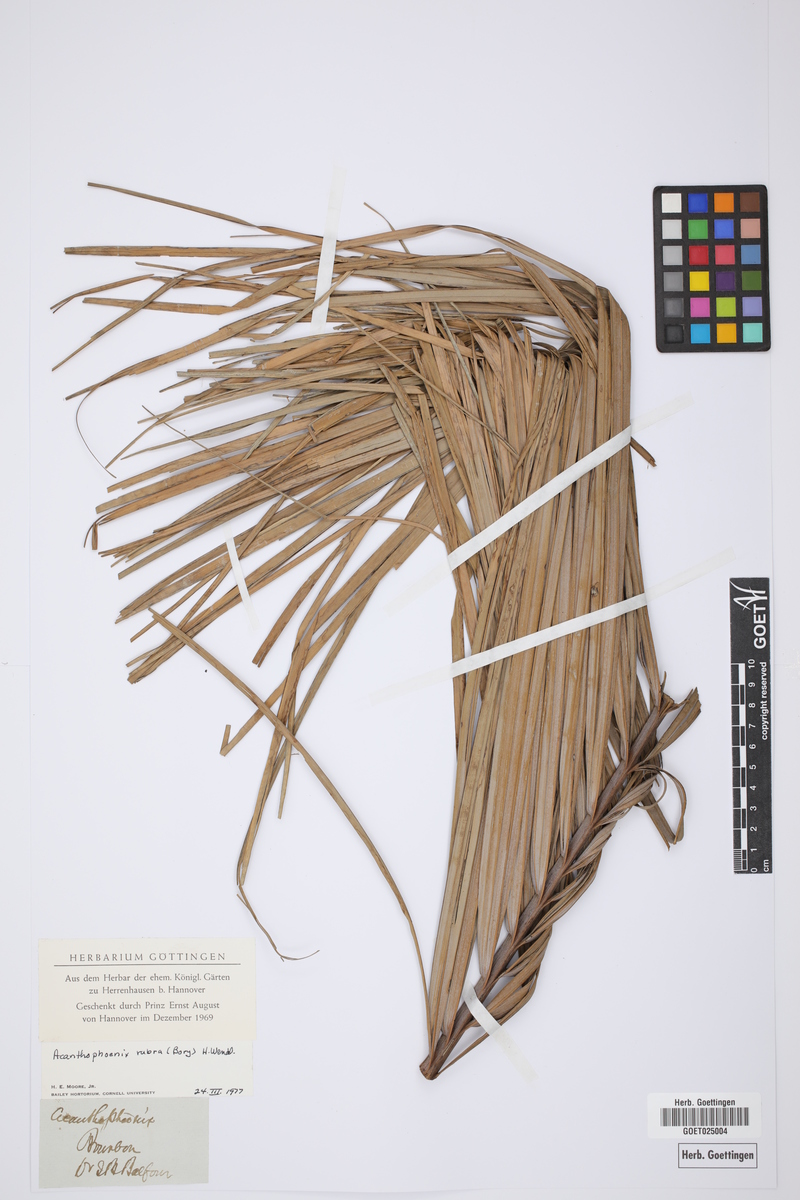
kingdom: Plantae
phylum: Tracheophyta
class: Liliopsida
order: Arecales
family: Arecaceae
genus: Acanthophoenix
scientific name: Acanthophoenix rubra
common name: Barbel palm
